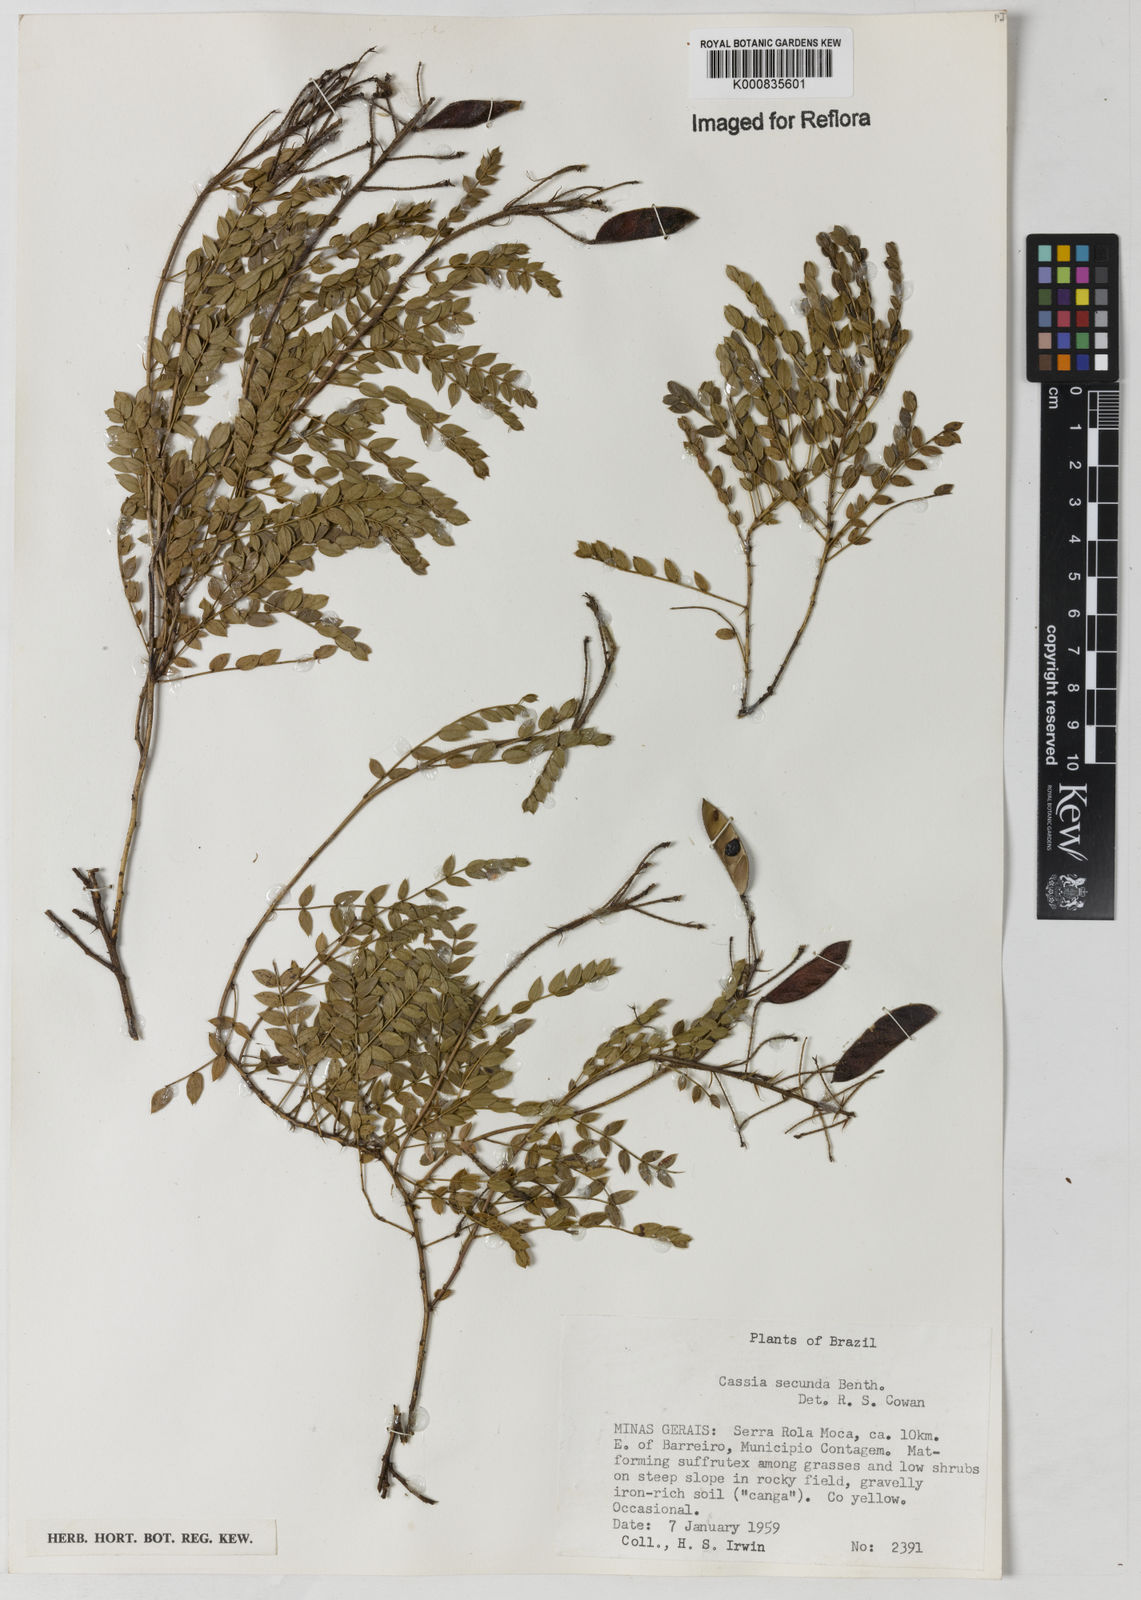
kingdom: Plantae
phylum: Tracheophyta
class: Magnoliopsida
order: Fabales
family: Fabaceae
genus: Chamaecrista
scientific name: Chamaecrista secunda
